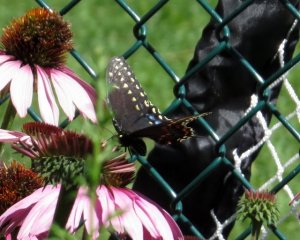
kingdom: Animalia
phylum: Arthropoda
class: Insecta
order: Lepidoptera
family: Papilionidae
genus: Papilio
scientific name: Papilio polyxenes
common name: Black Swallowtail
